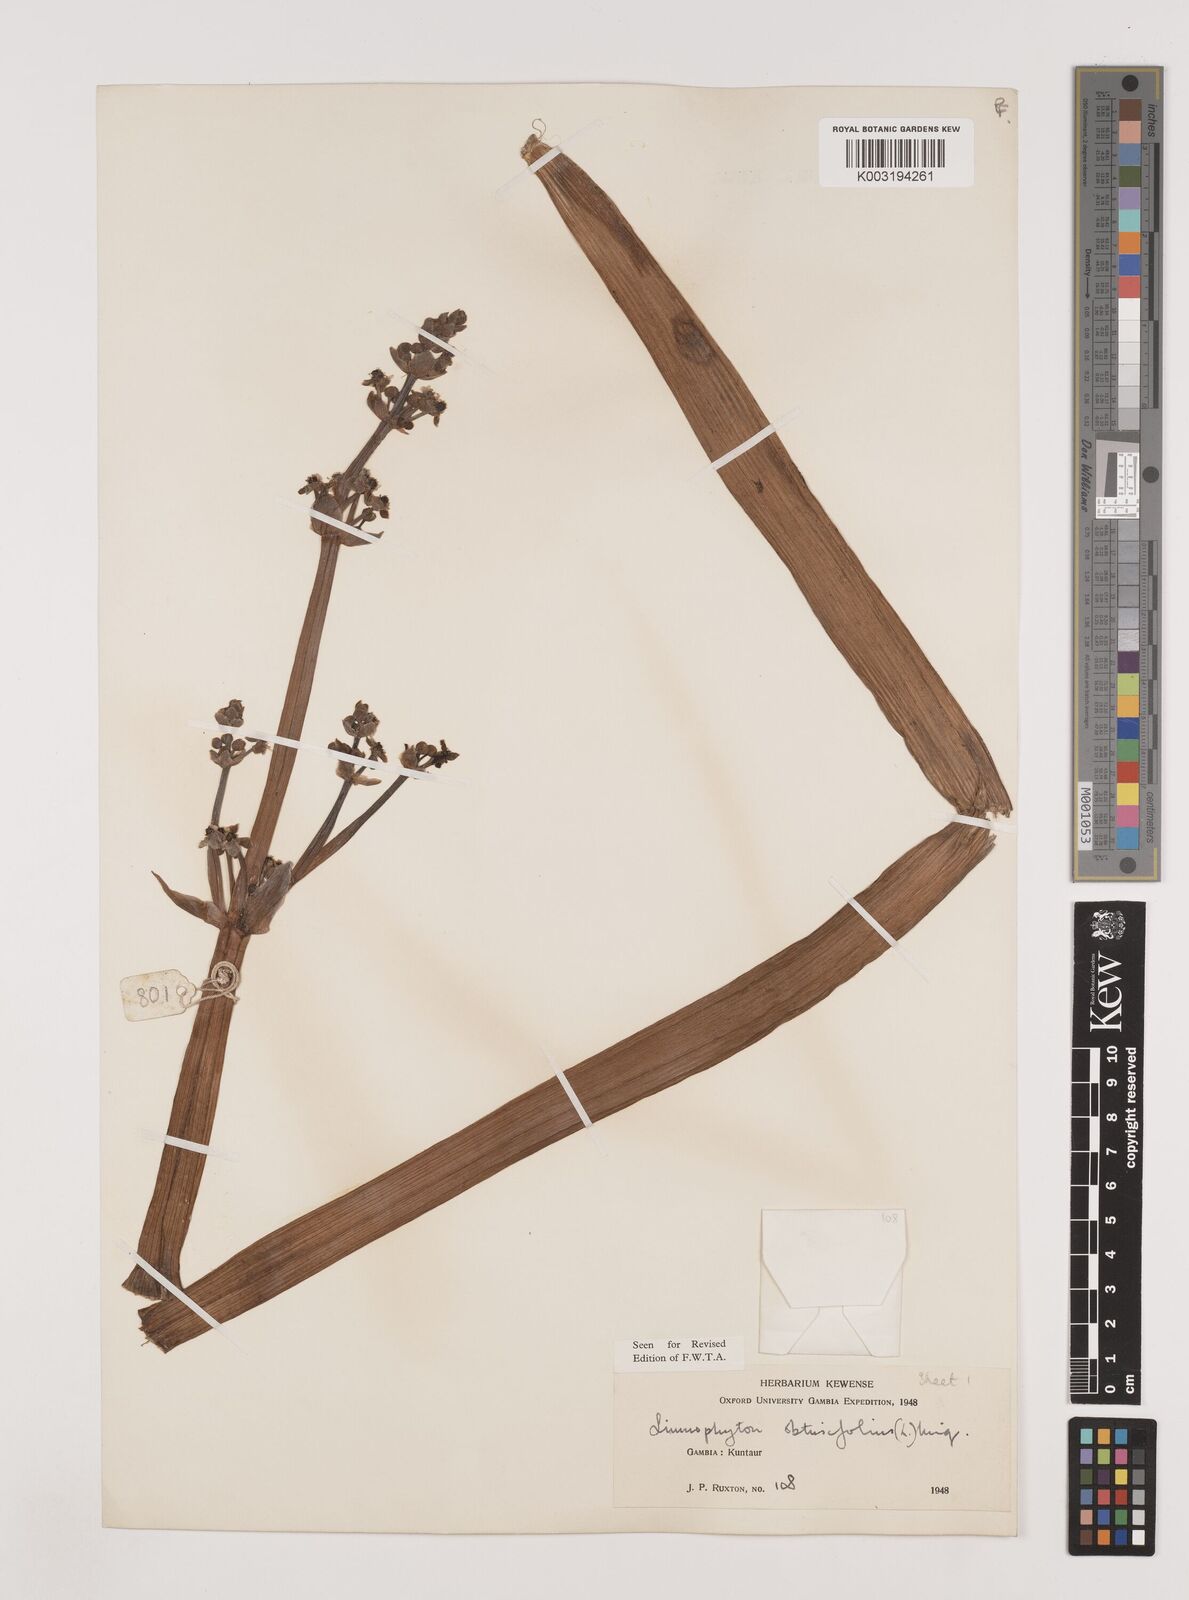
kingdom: Plantae
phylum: Tracheophyta
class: Liliopsida
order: Alismatales
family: Alismataceae
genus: Limnophyton
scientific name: Limnophyton obtusifolium
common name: Arrow head
